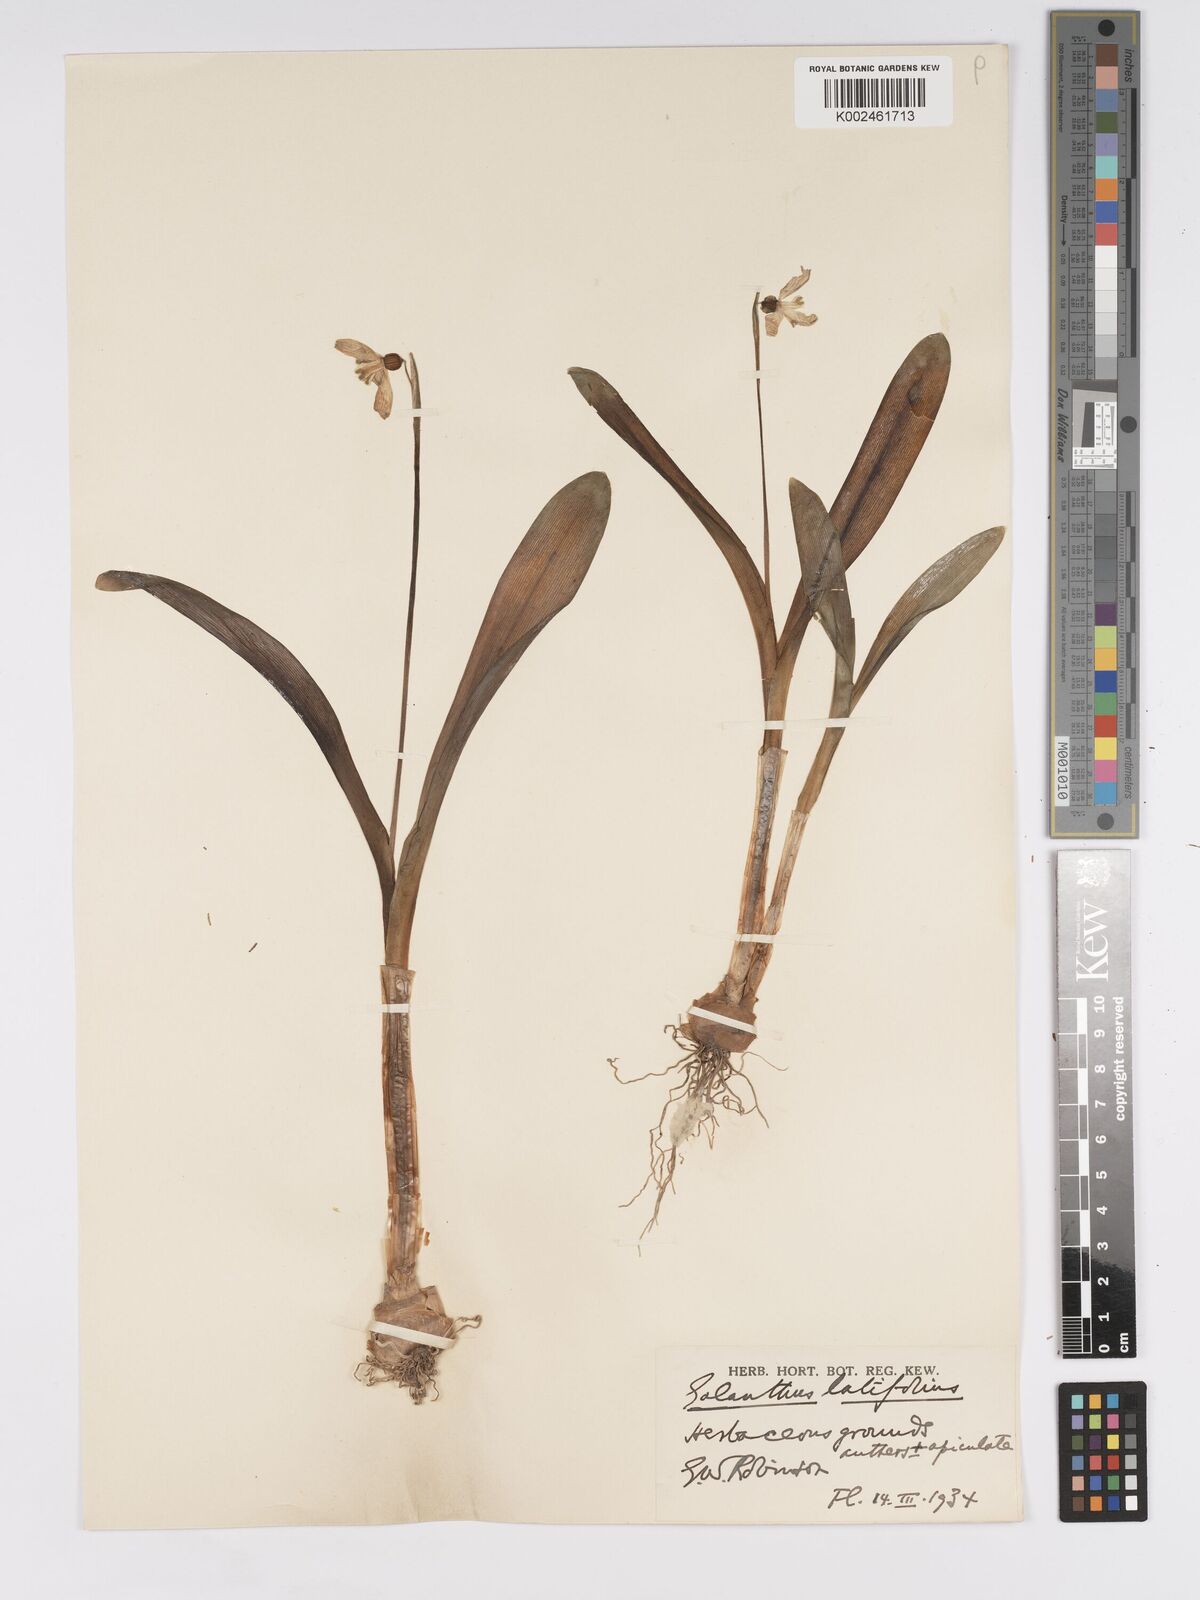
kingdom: Plantae
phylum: Tracheophyta
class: Liliopsida
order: Asparagales
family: Amaryllidaceae
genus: Galanthus
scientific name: Galanthus platyphyllus
